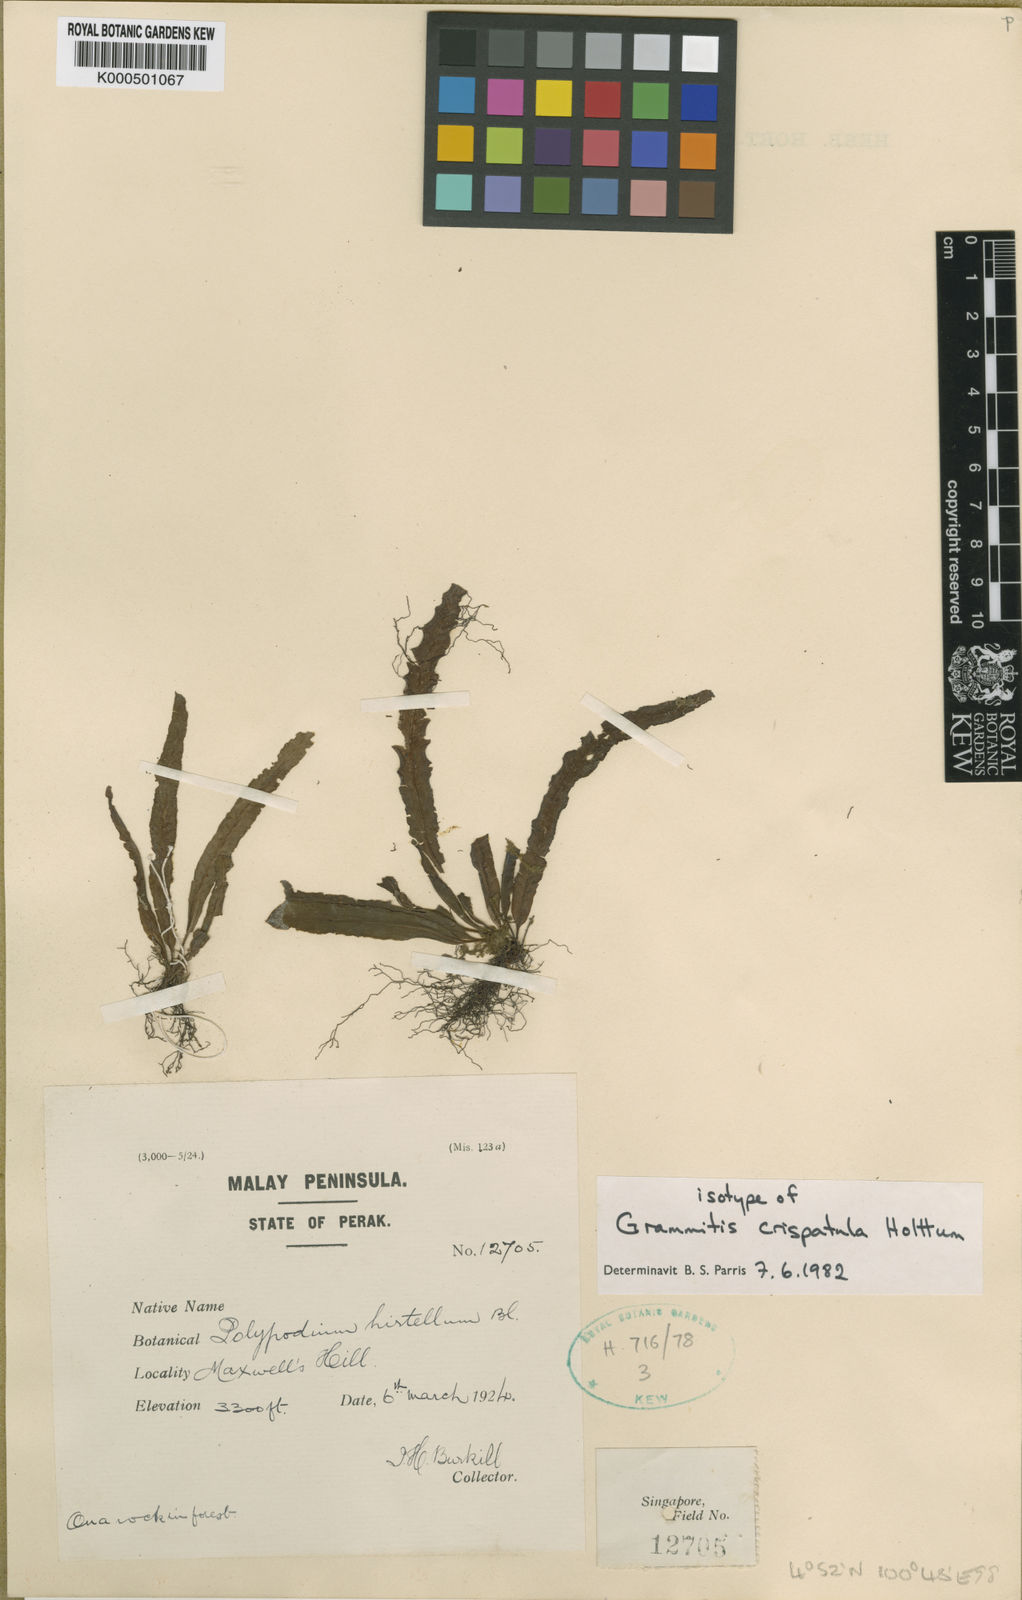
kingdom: Plantae
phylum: Tracheophyta
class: Polypodiopsida
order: Polypodiales
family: Polypodiaceae
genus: Oreogrammitis
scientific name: Oreogrammitis crispatula
